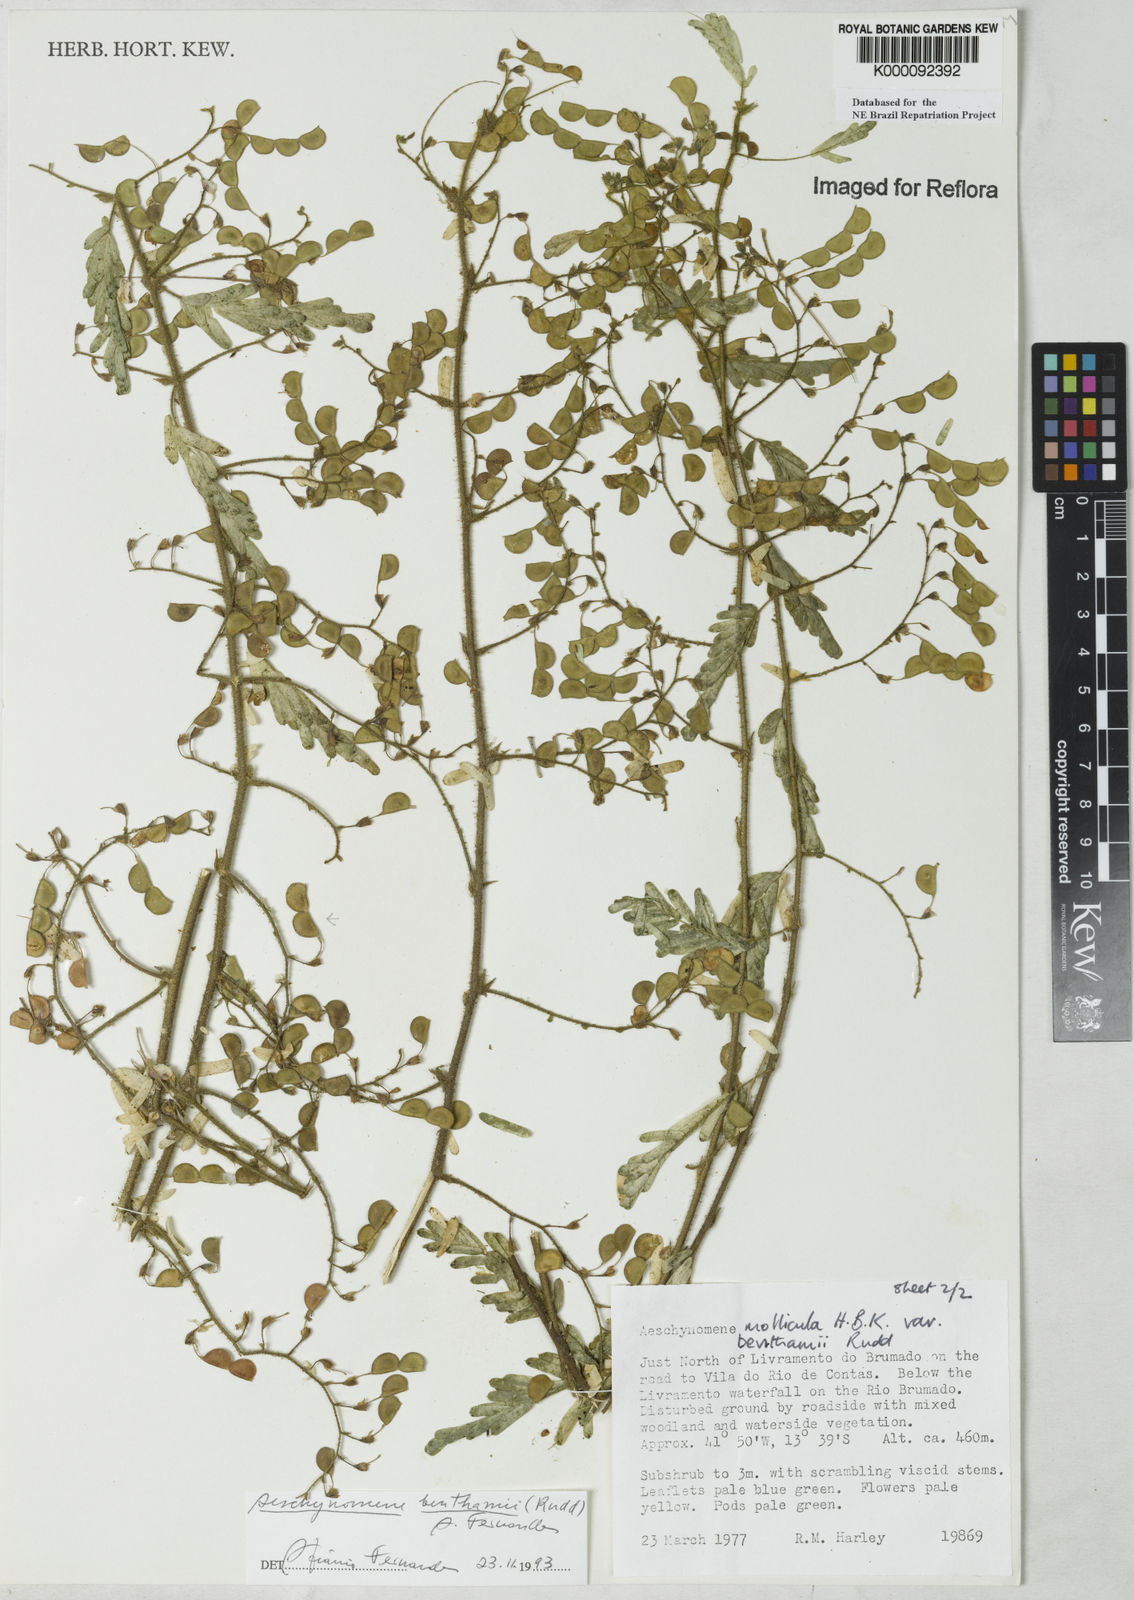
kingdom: Plantae
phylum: Tracheophyta
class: Magnoliopsida
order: Fabales
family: Fabaceae
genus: Aeschynomene
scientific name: Aeschynomene
